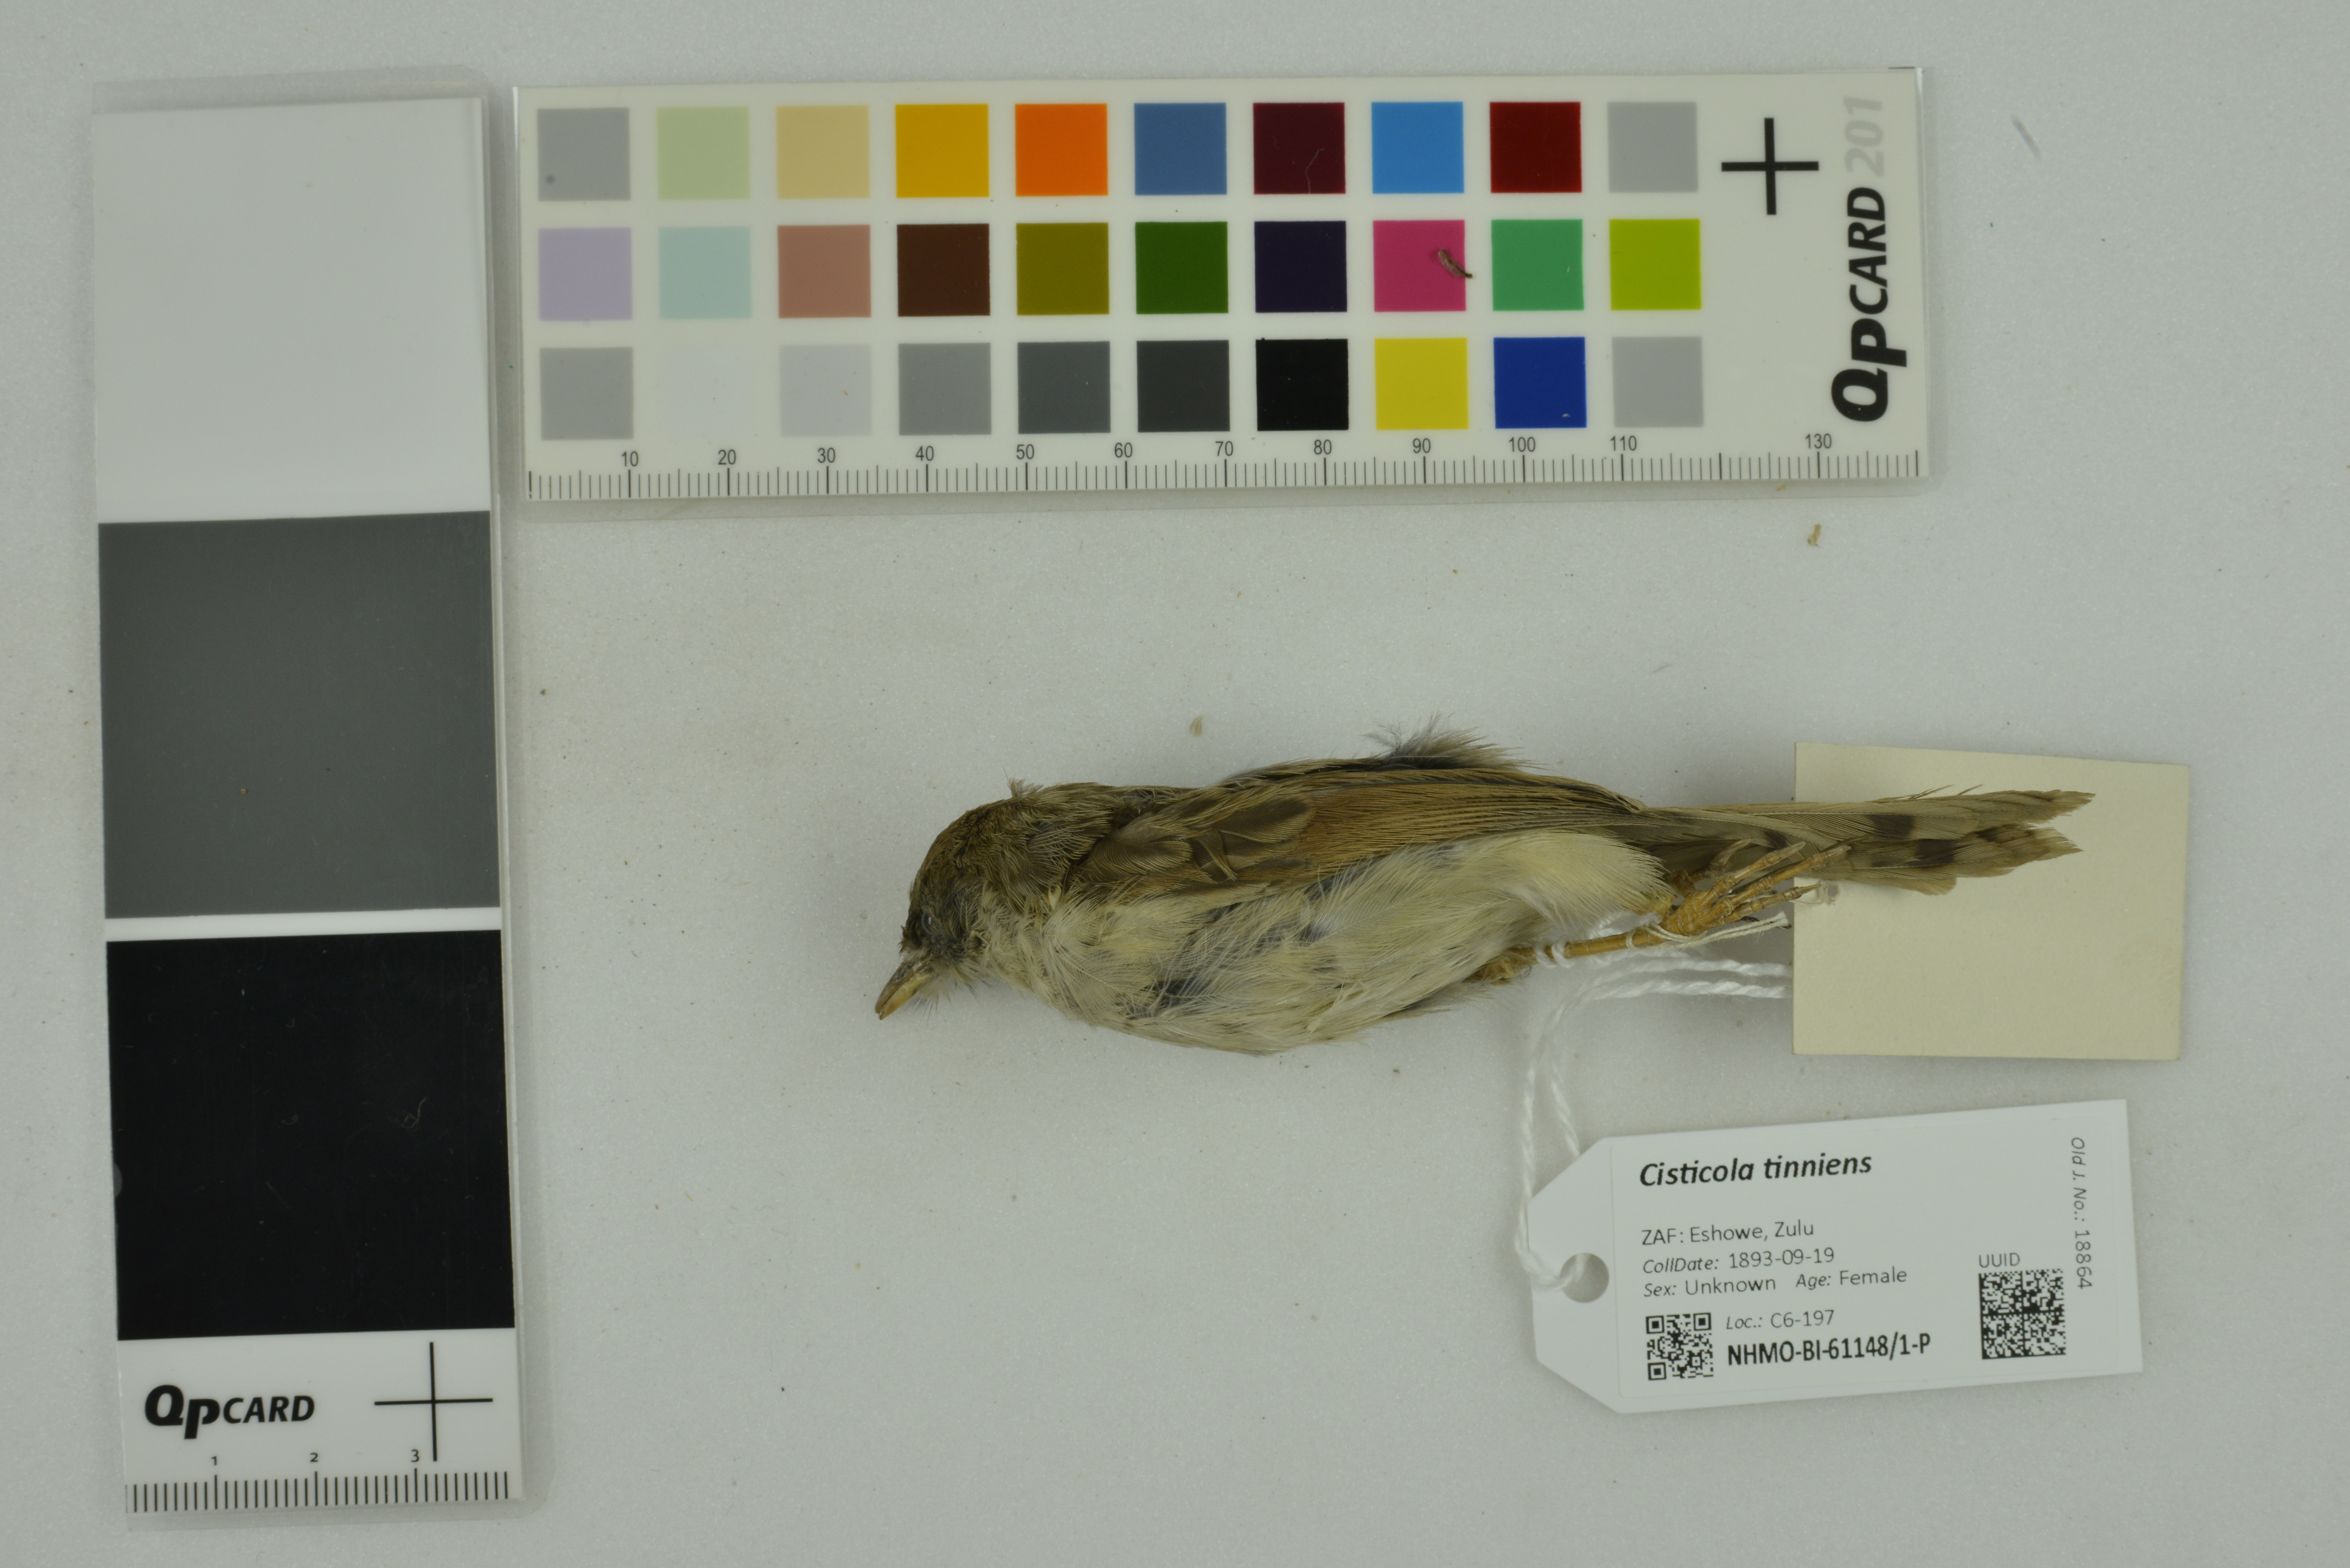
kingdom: Animalia
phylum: Chordata
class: Aves
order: Passeriformes
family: Cisticolidae
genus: Cisticola
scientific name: Cisticola tinniens
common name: Levaillant's cisticola
